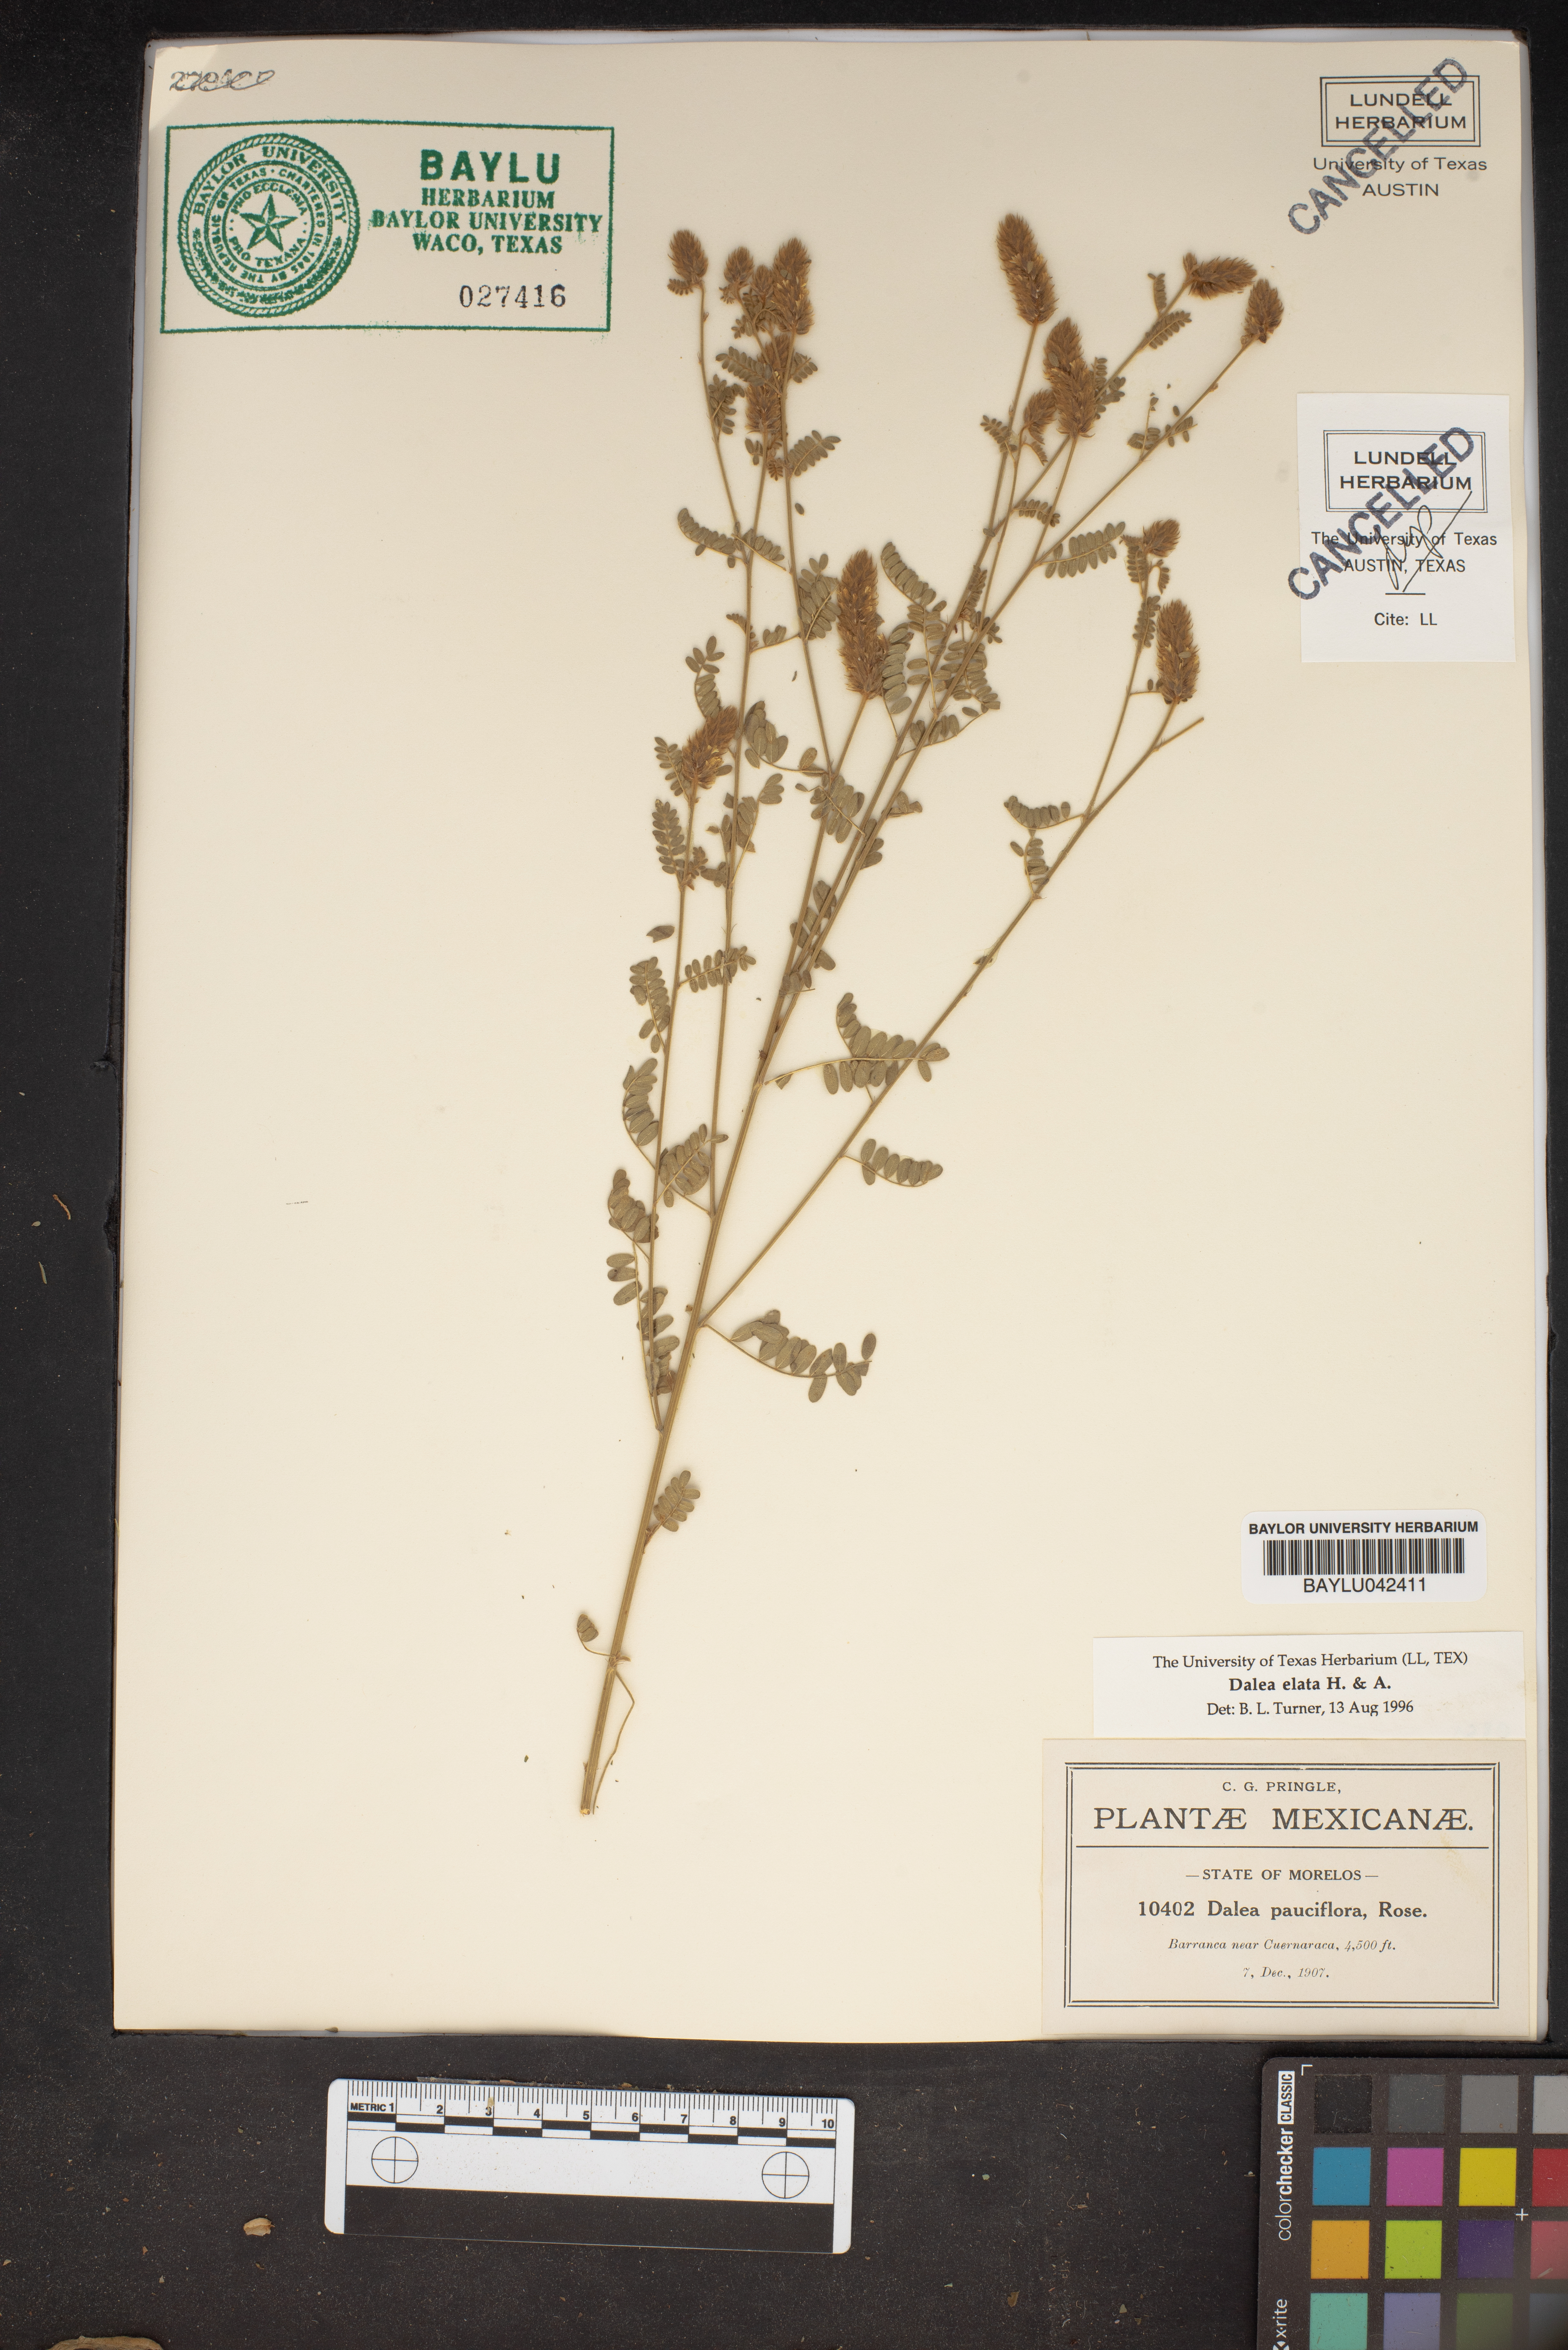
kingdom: Plantae
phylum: Tracheophyta
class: Magnoliopsida
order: Fabales
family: Fabaceae
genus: Dalea
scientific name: Dalea exserta
